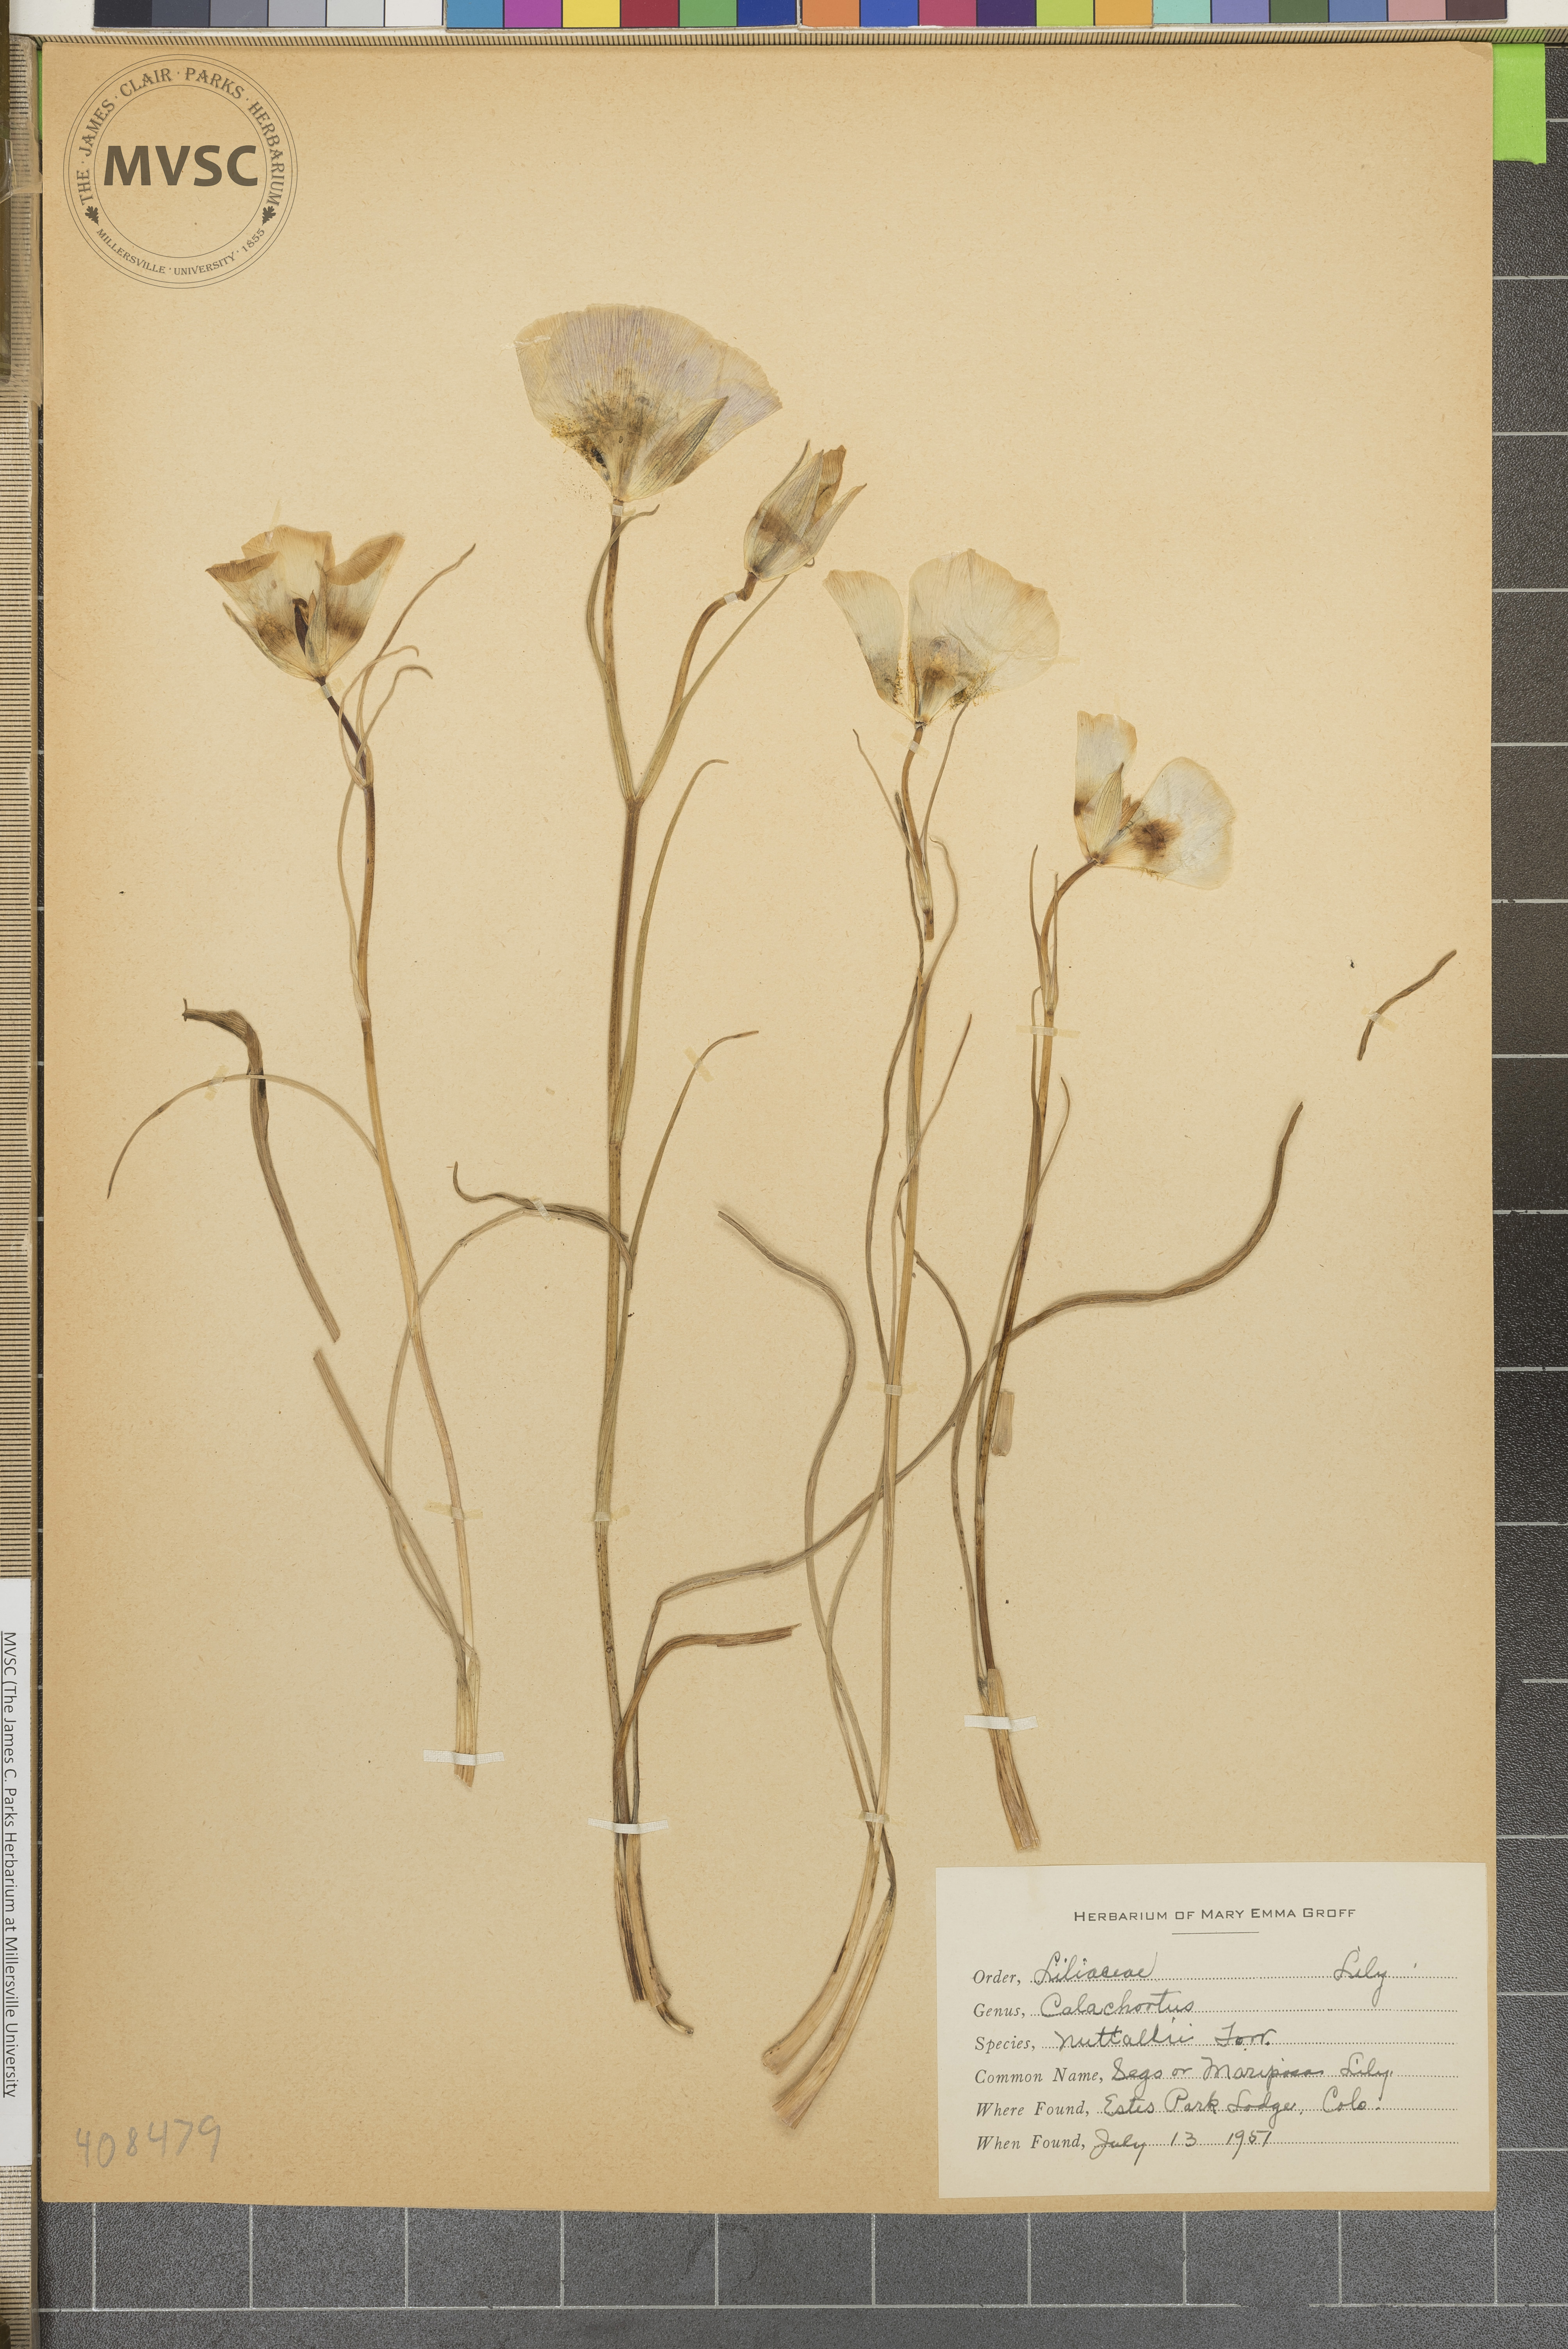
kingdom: Plantae
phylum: Tracheophyta
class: Liliopsida
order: Liliales
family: Liliaceae
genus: Calochortus
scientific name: Calochortus nuttallii
